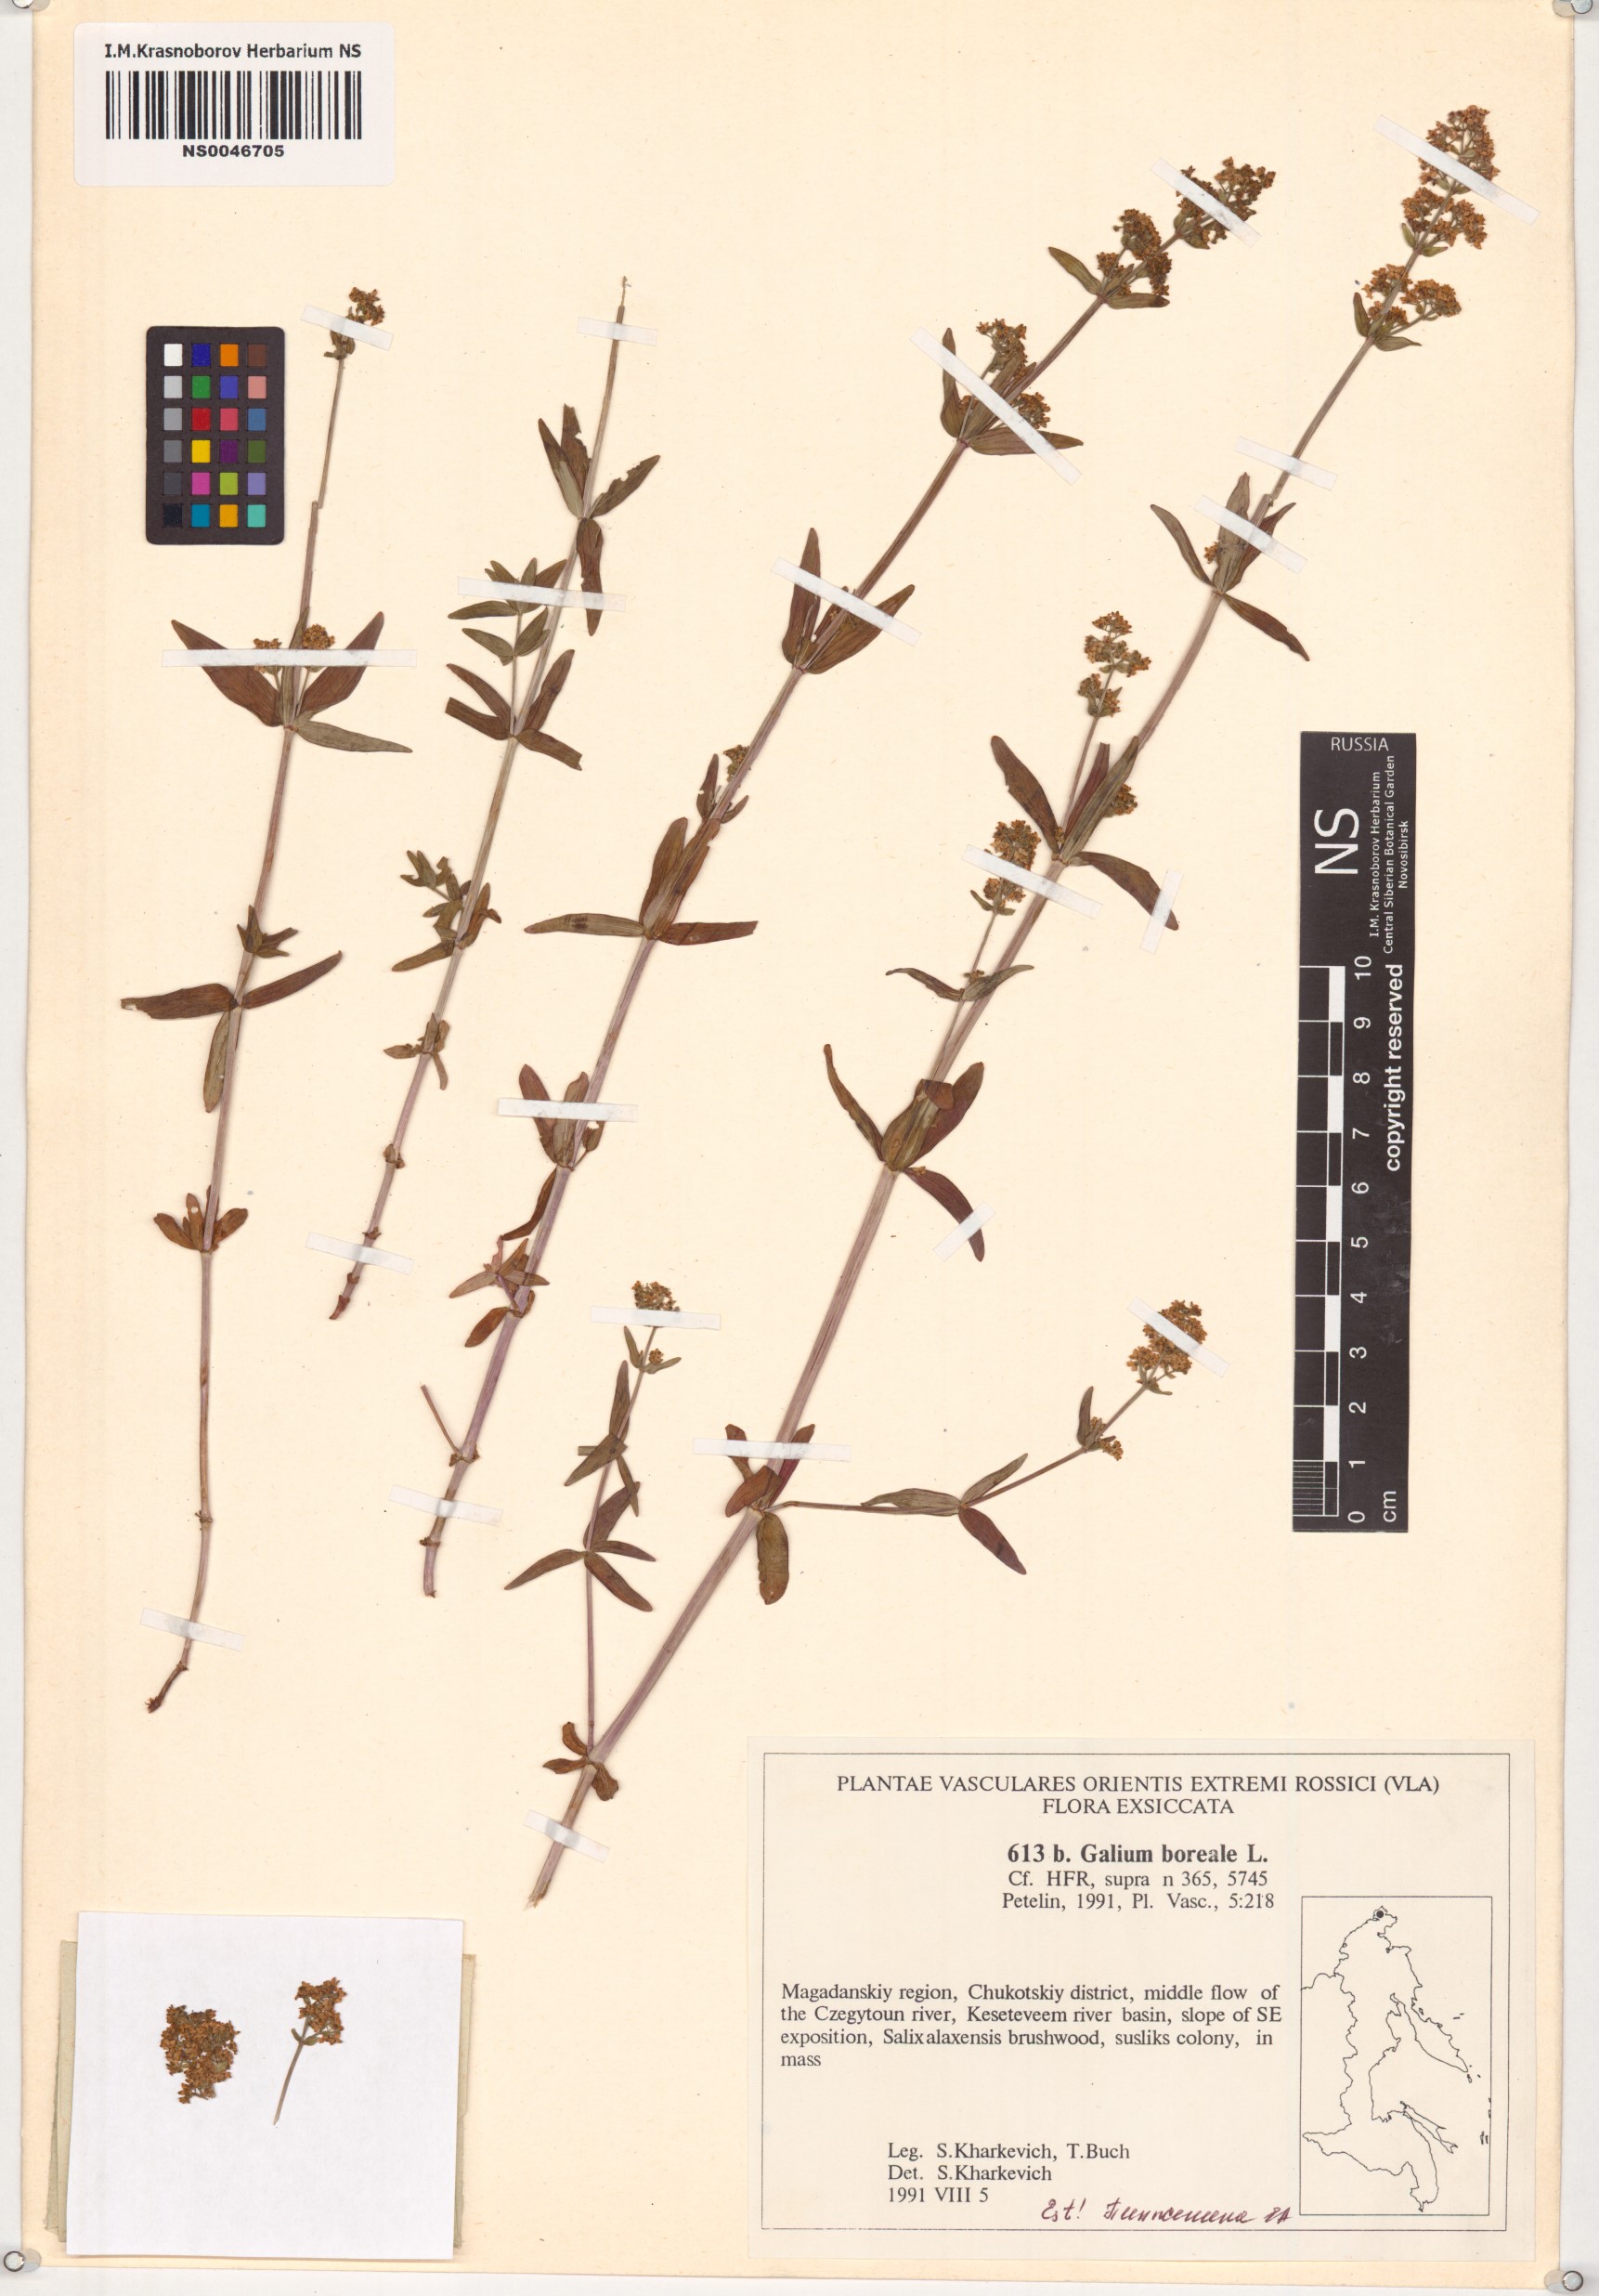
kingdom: Plantae
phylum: Tracheophyta
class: Magnoliopsida
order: Gentianales
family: Rubiaceae
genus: Galium
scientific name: Galium boreale
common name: Northern bedstraw
